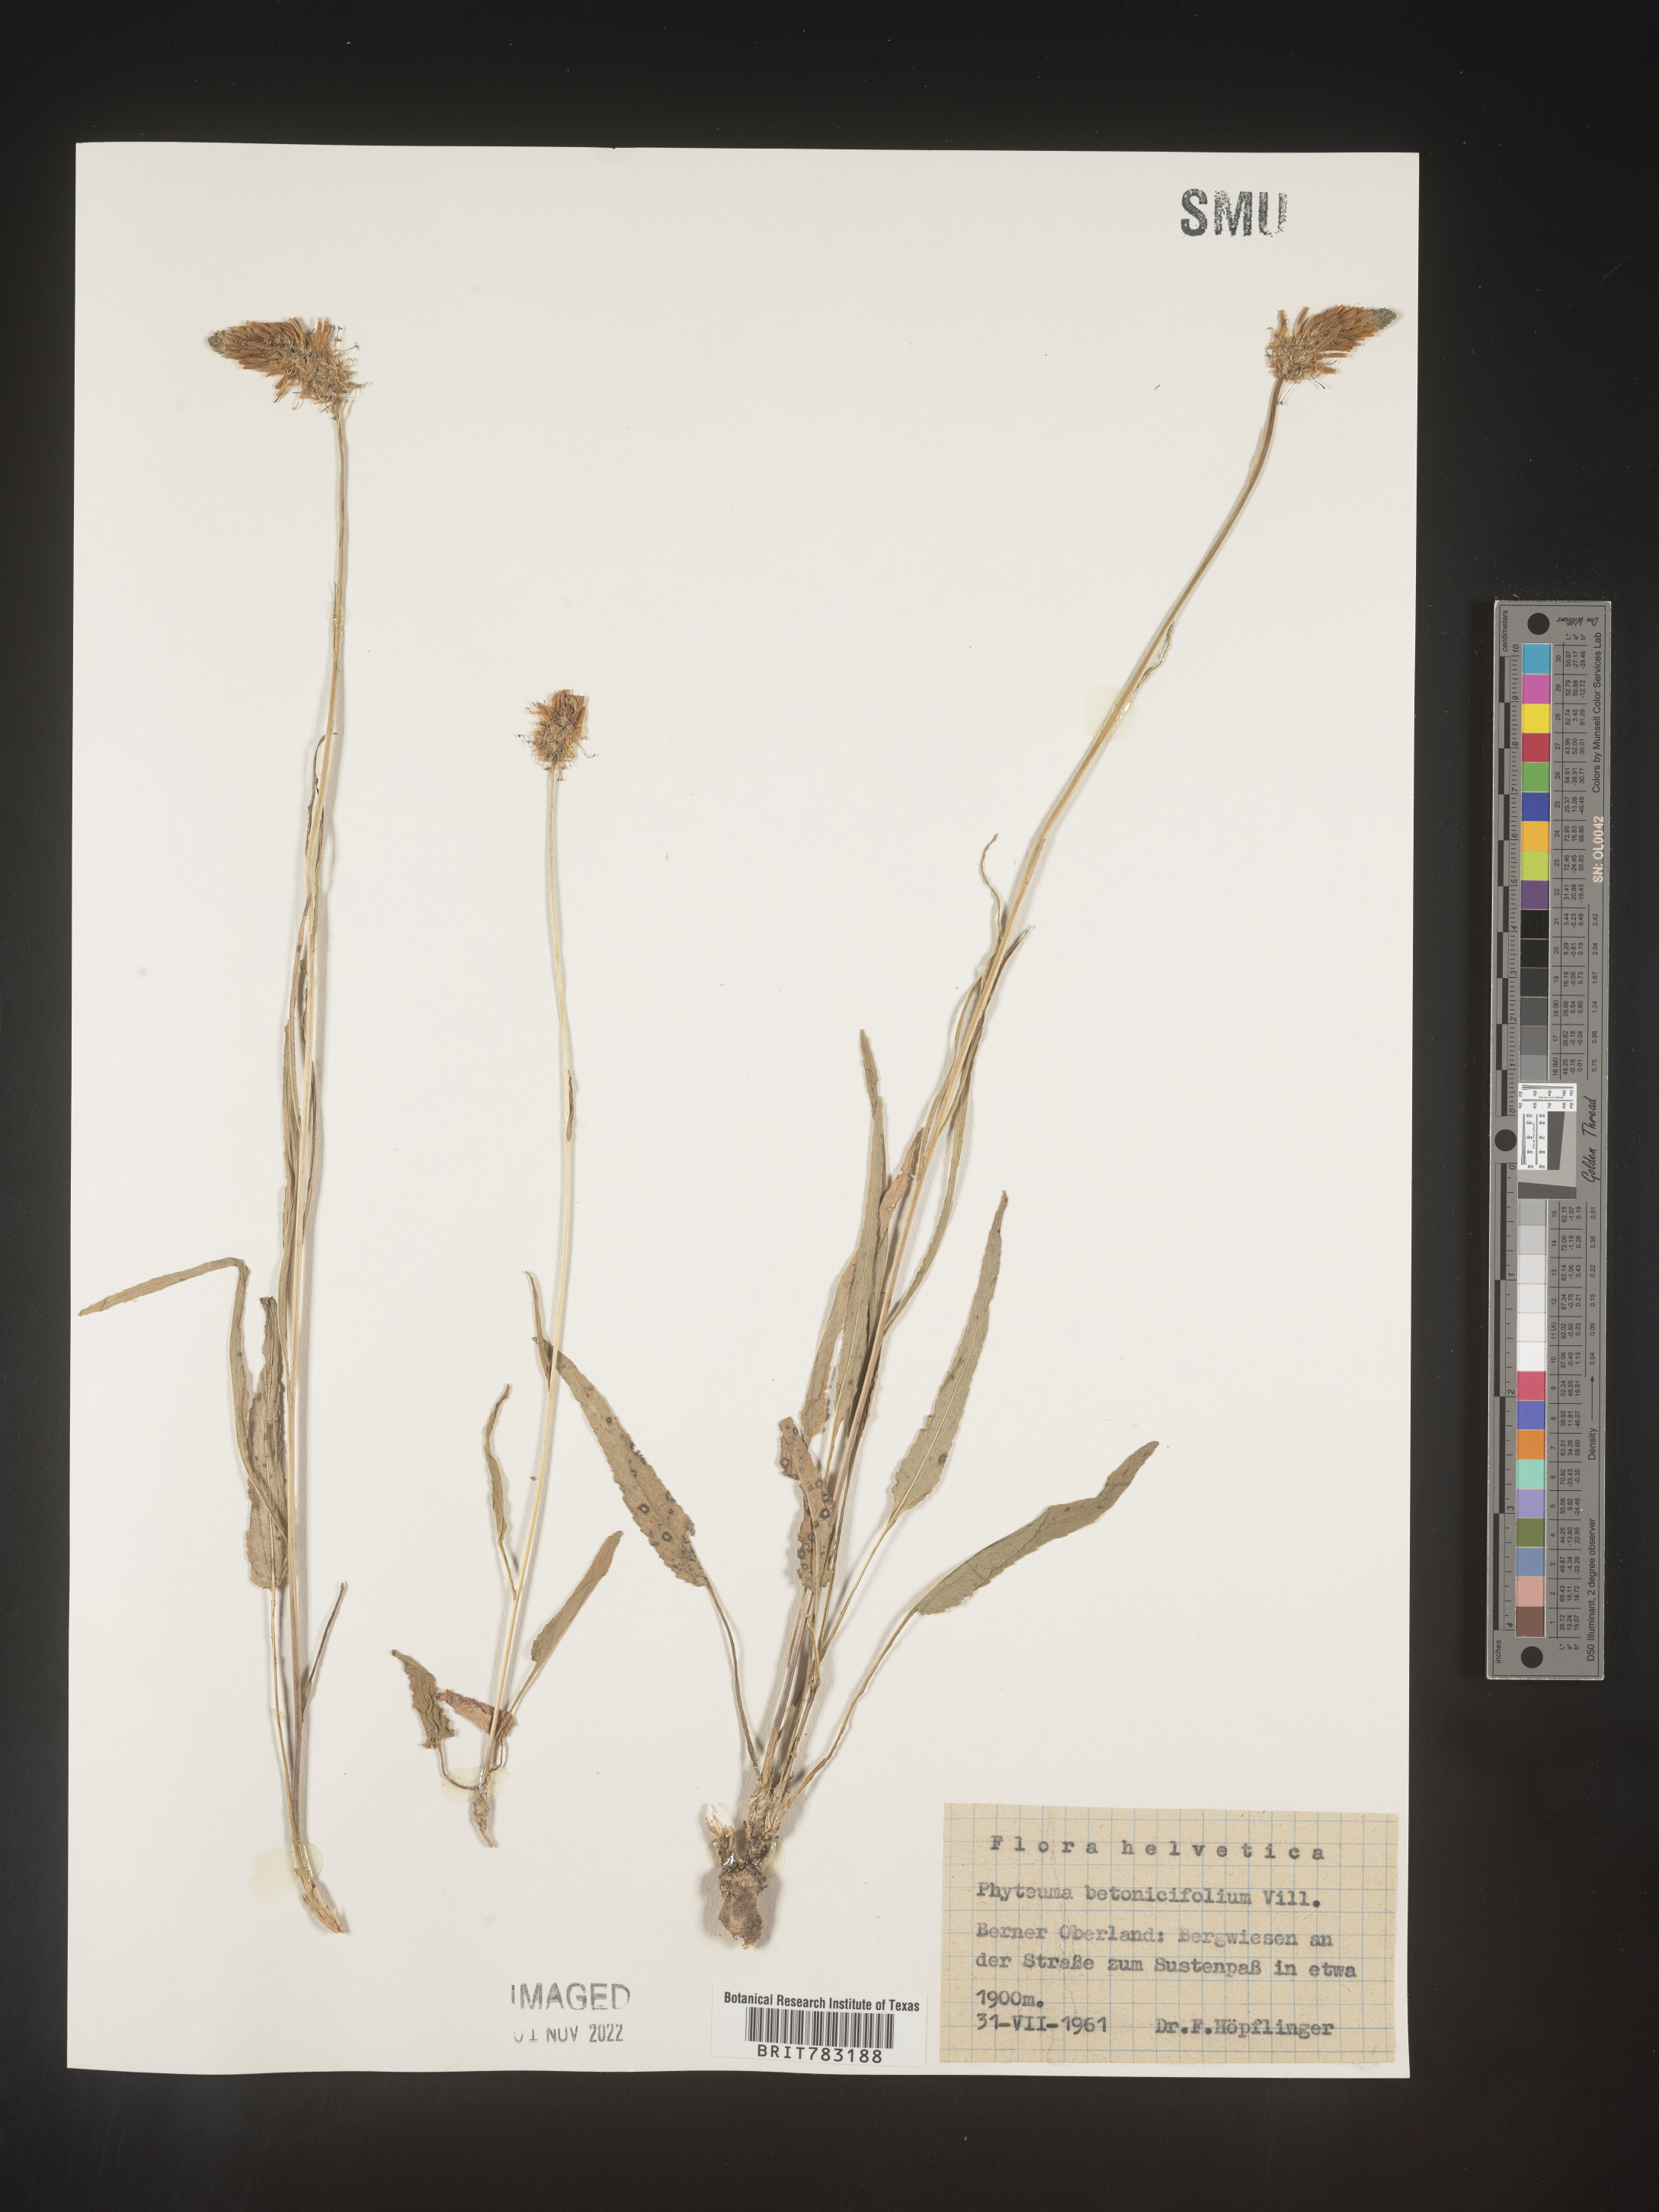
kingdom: Plantae
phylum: Tracheophyta
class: Magnoliopsida
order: Asterales
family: Campanulaceae
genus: Phyteuma
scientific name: Phyteuma
